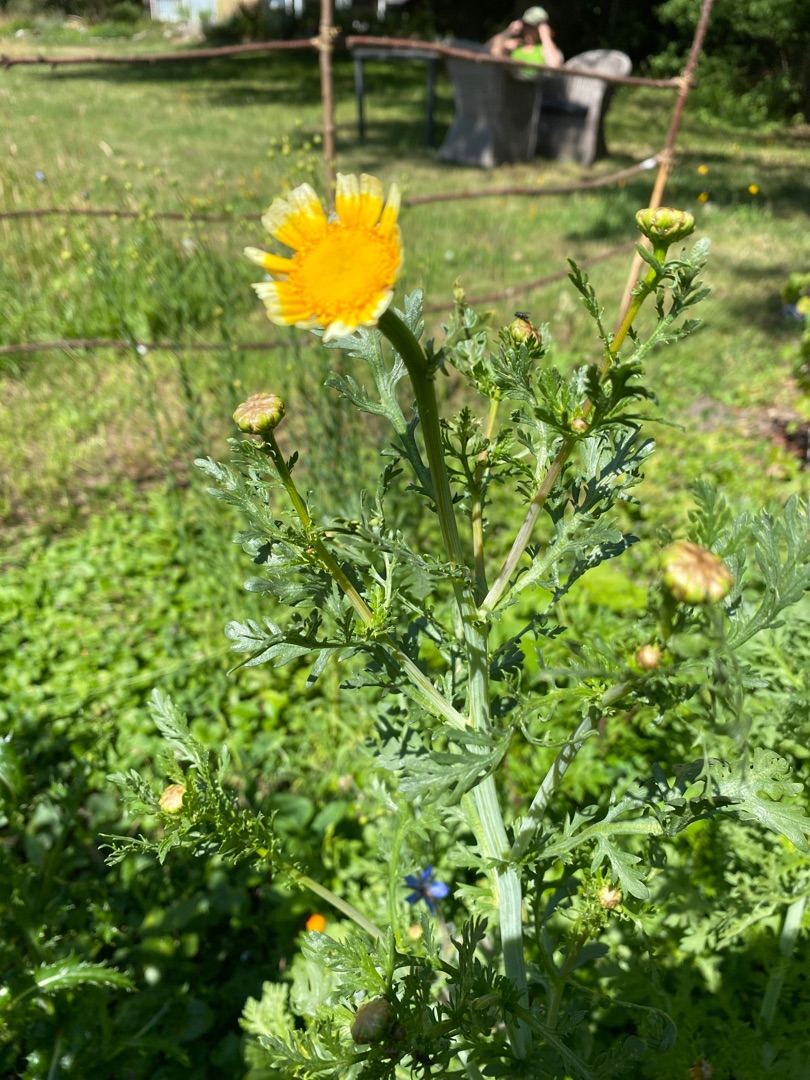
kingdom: Plantae
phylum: Tracheophyta
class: Magnoliopsida
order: Asterales
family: Asteraceae
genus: Glebionis
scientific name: Glebionis coronaria
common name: Kron-okseøje
